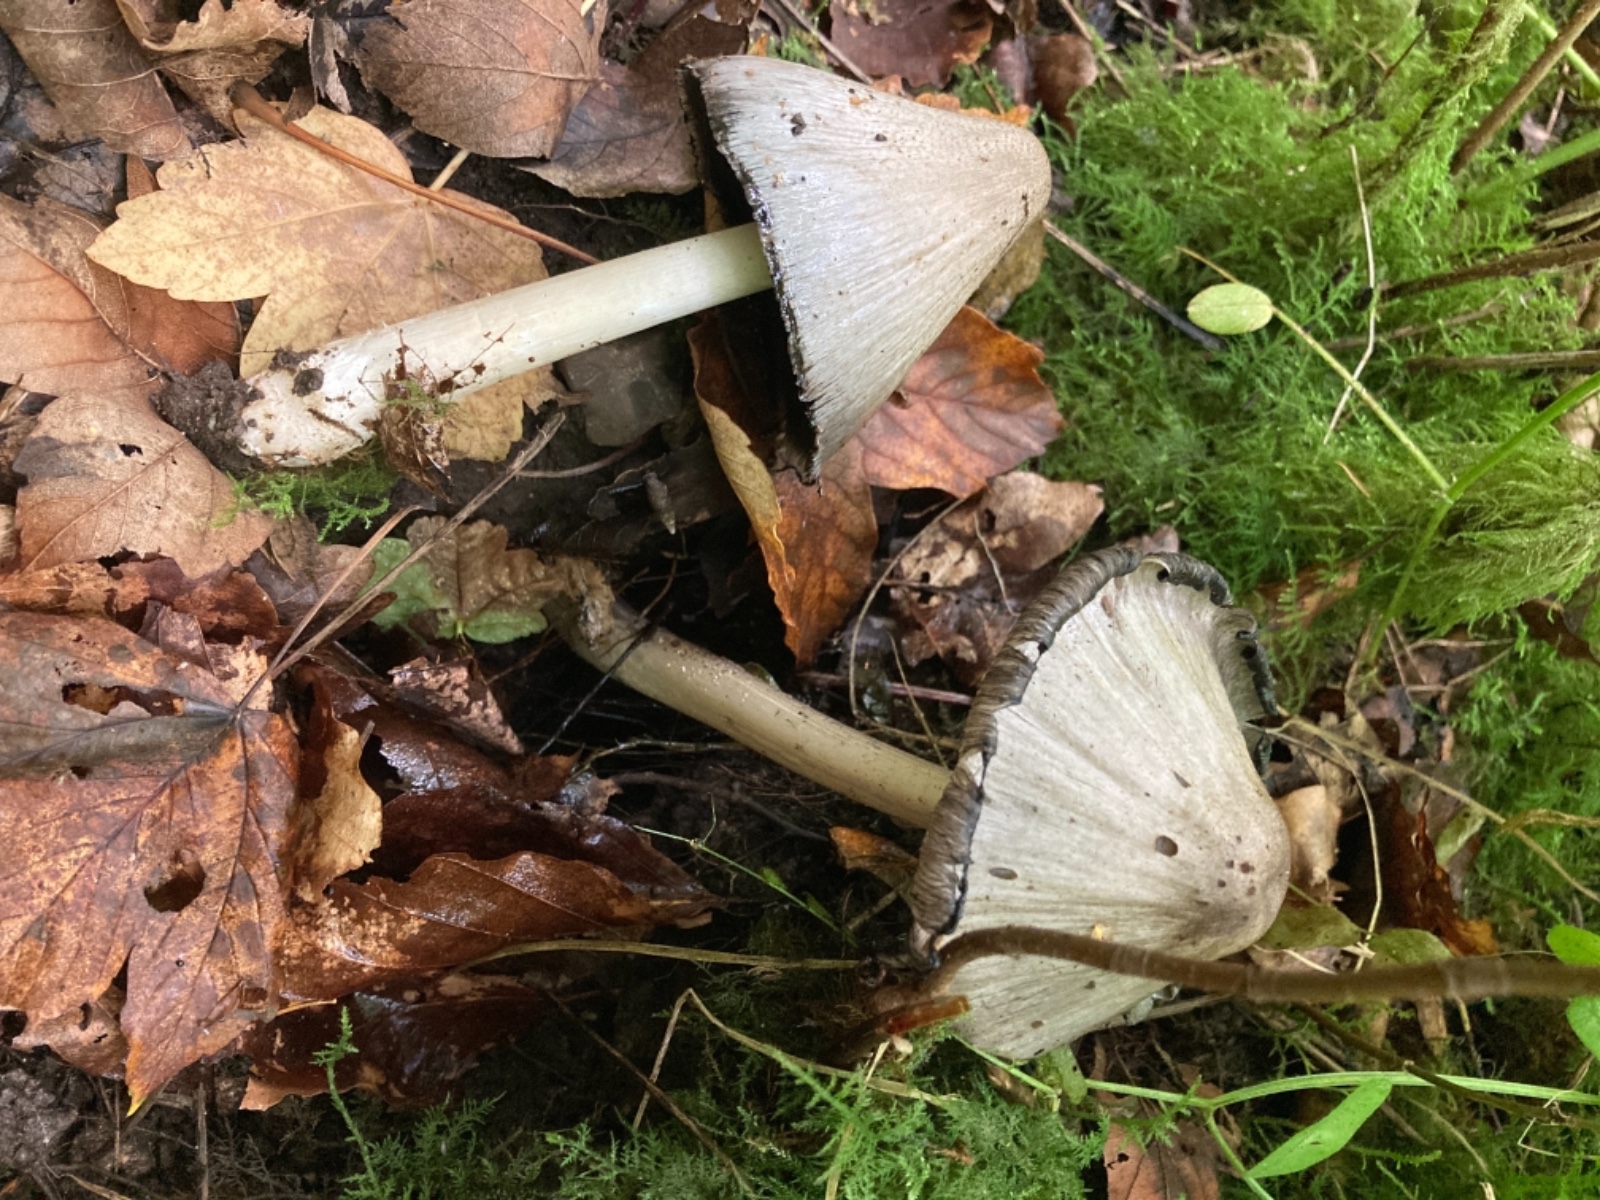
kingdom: Fungi
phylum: Basidiomycota
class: Agaricomycetes
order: Agaricales
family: Psathyrellaceae
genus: Coprinopsis
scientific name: Coprinopsis atramentaria
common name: almindelig blækhat
